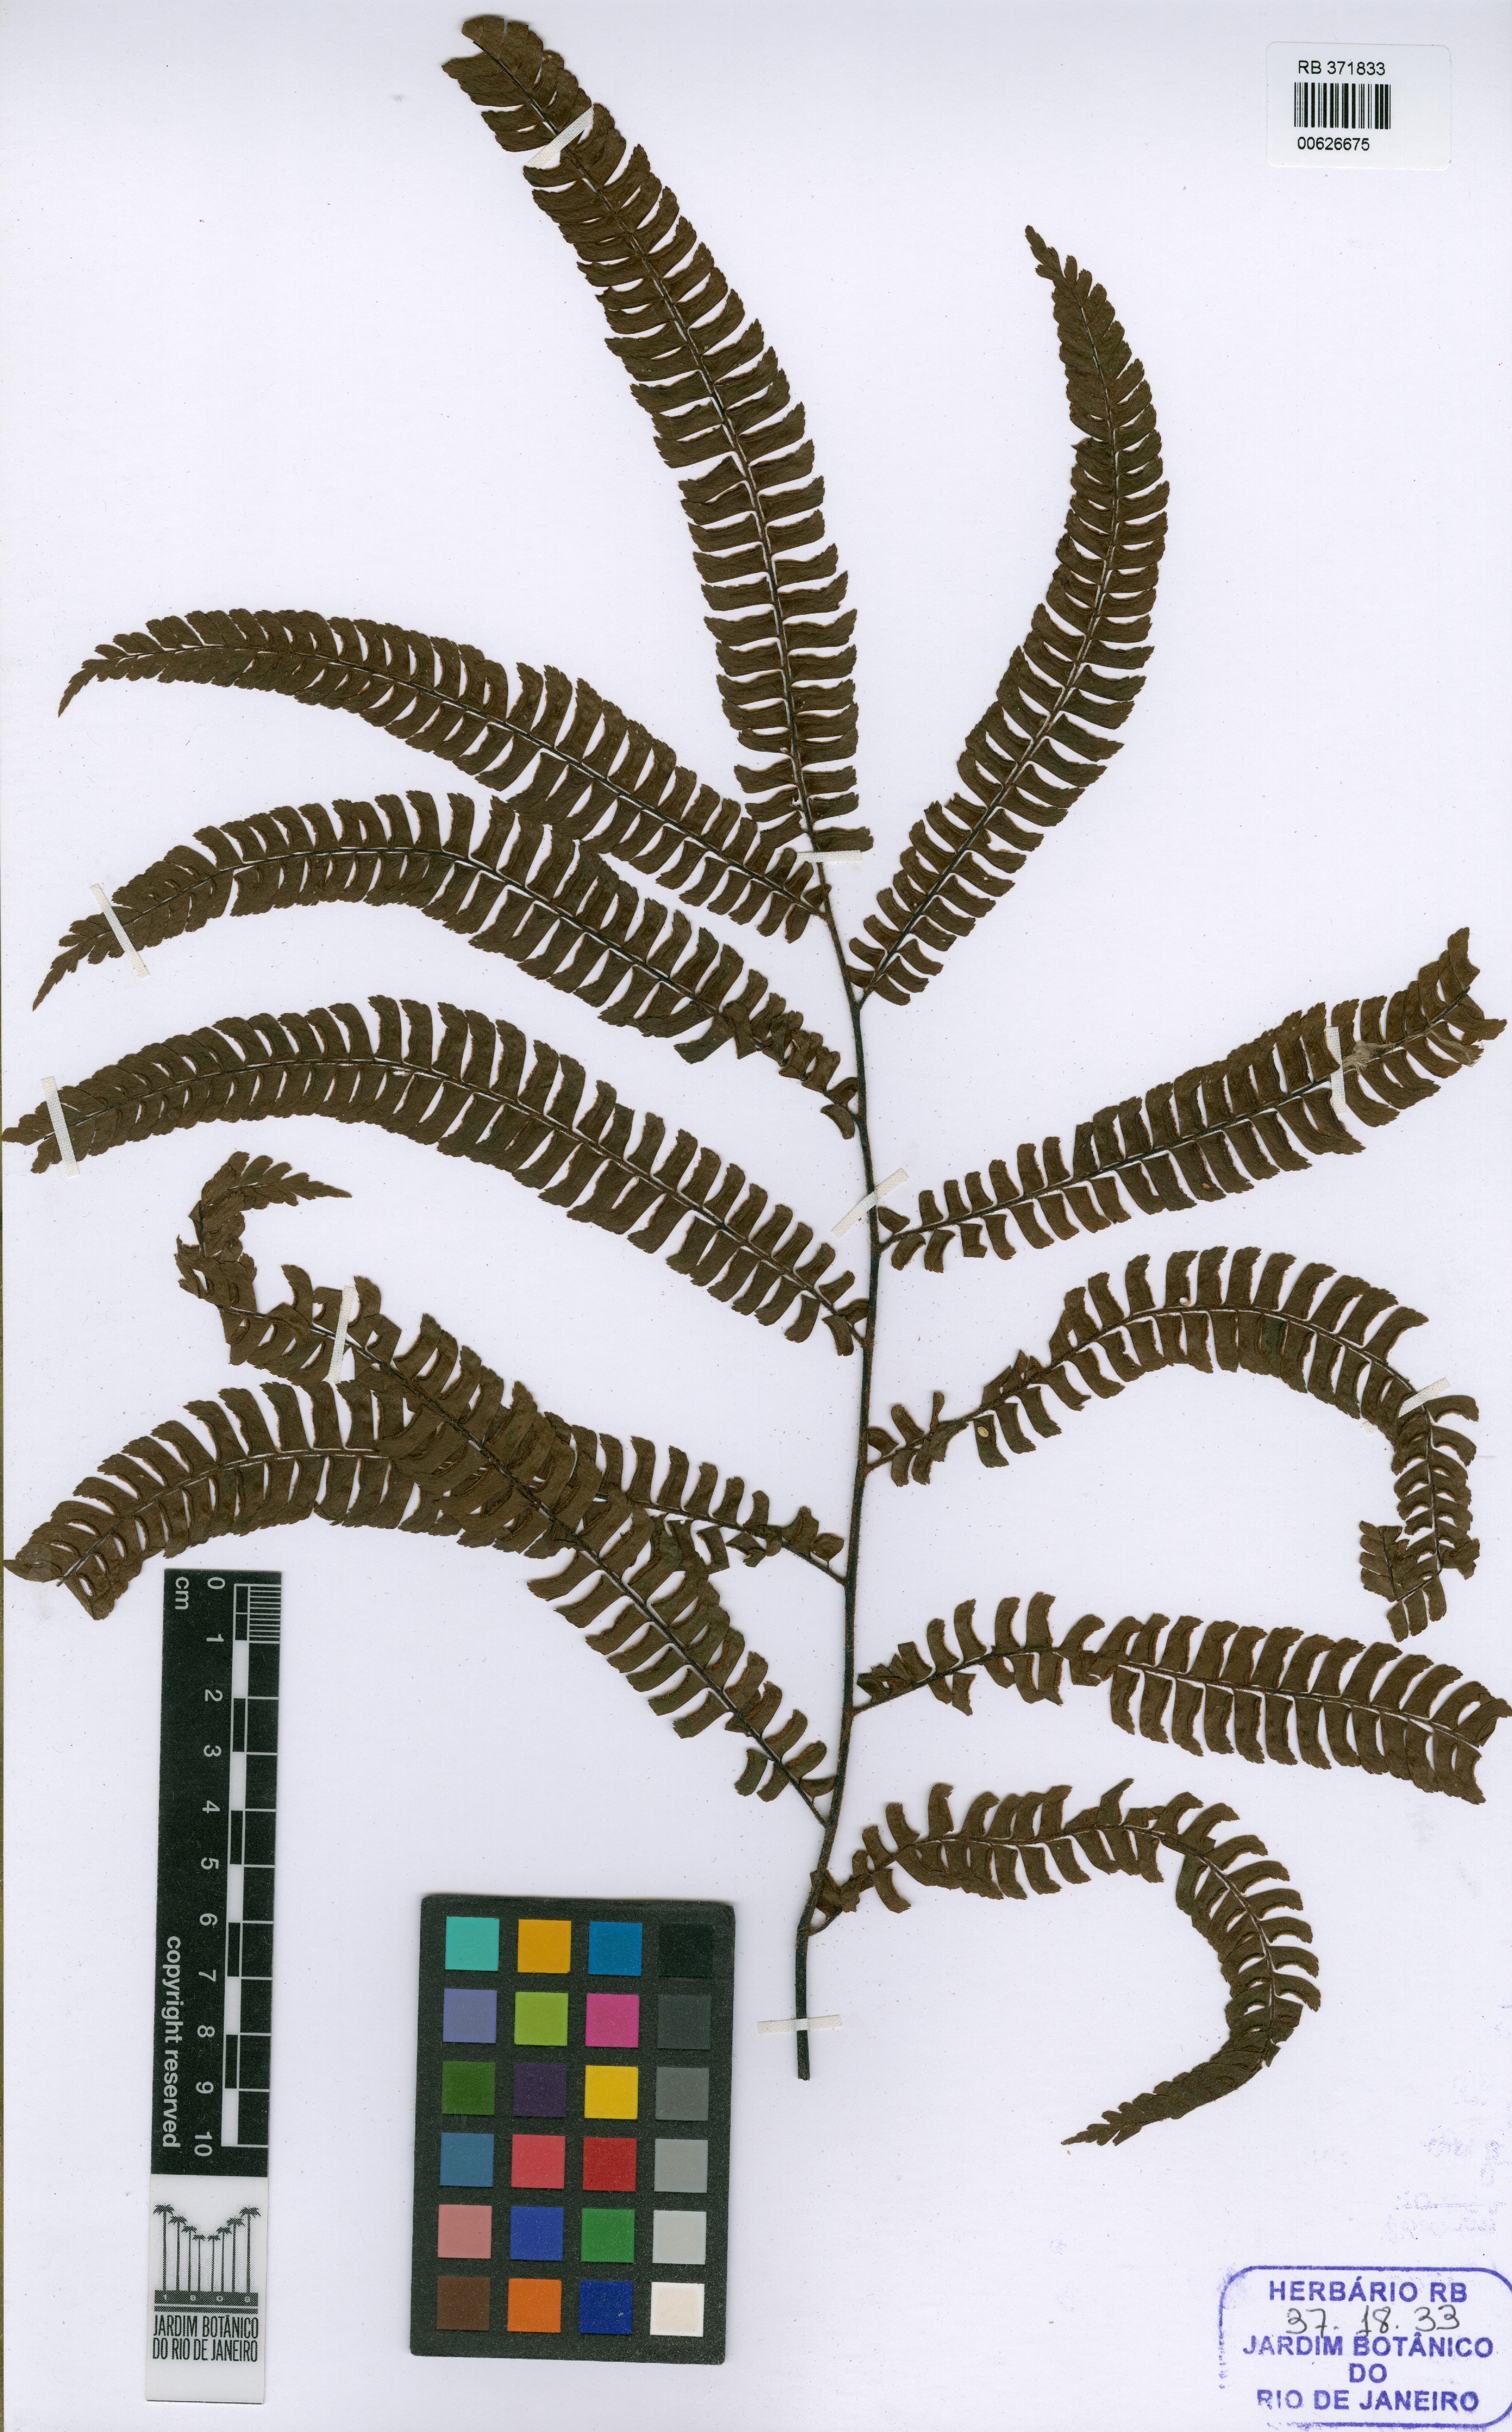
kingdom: Plantae
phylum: Tracheophyta
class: Polypodiopsida
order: Polypodiales
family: Pteridaceae
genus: Adiantum
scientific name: Adiantum pulverulentum
